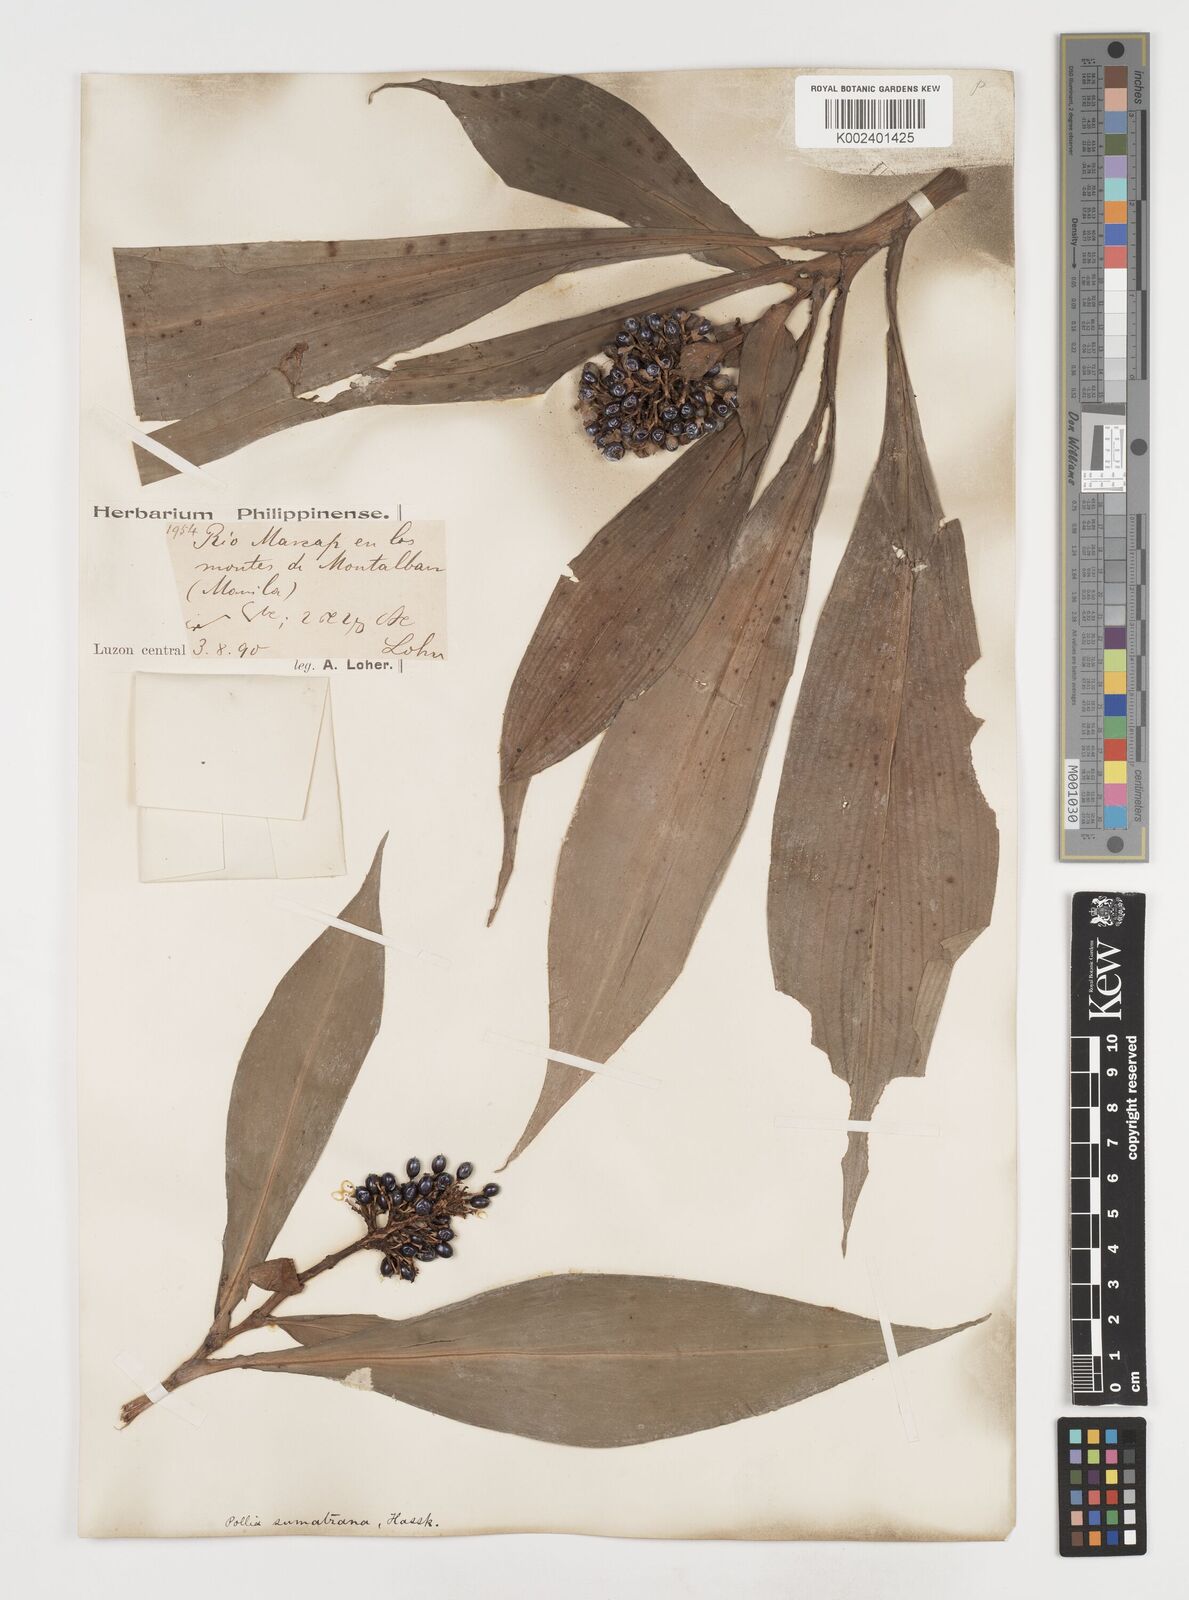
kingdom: Plantae
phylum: Tracheophyta
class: Liliopsida
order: Commelinales
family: Commelinaceae
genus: Pollia
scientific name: Pollia sumatrana
